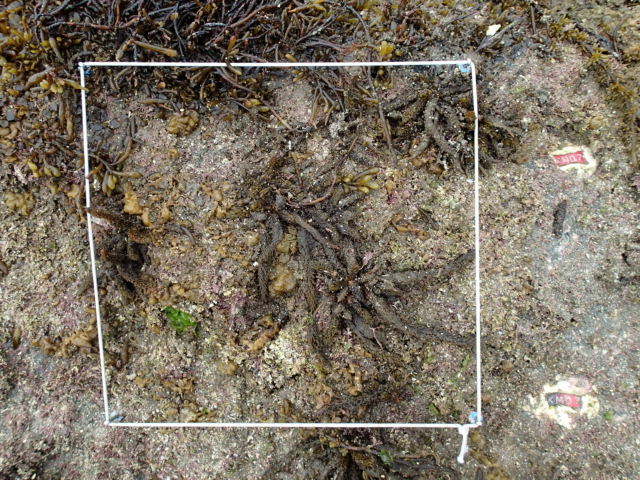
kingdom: Chromista
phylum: Ochrophyta
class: Phaeophyceae
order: Fucales
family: Sargassaceae
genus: Sargassum
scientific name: Sargassum fusiforme
